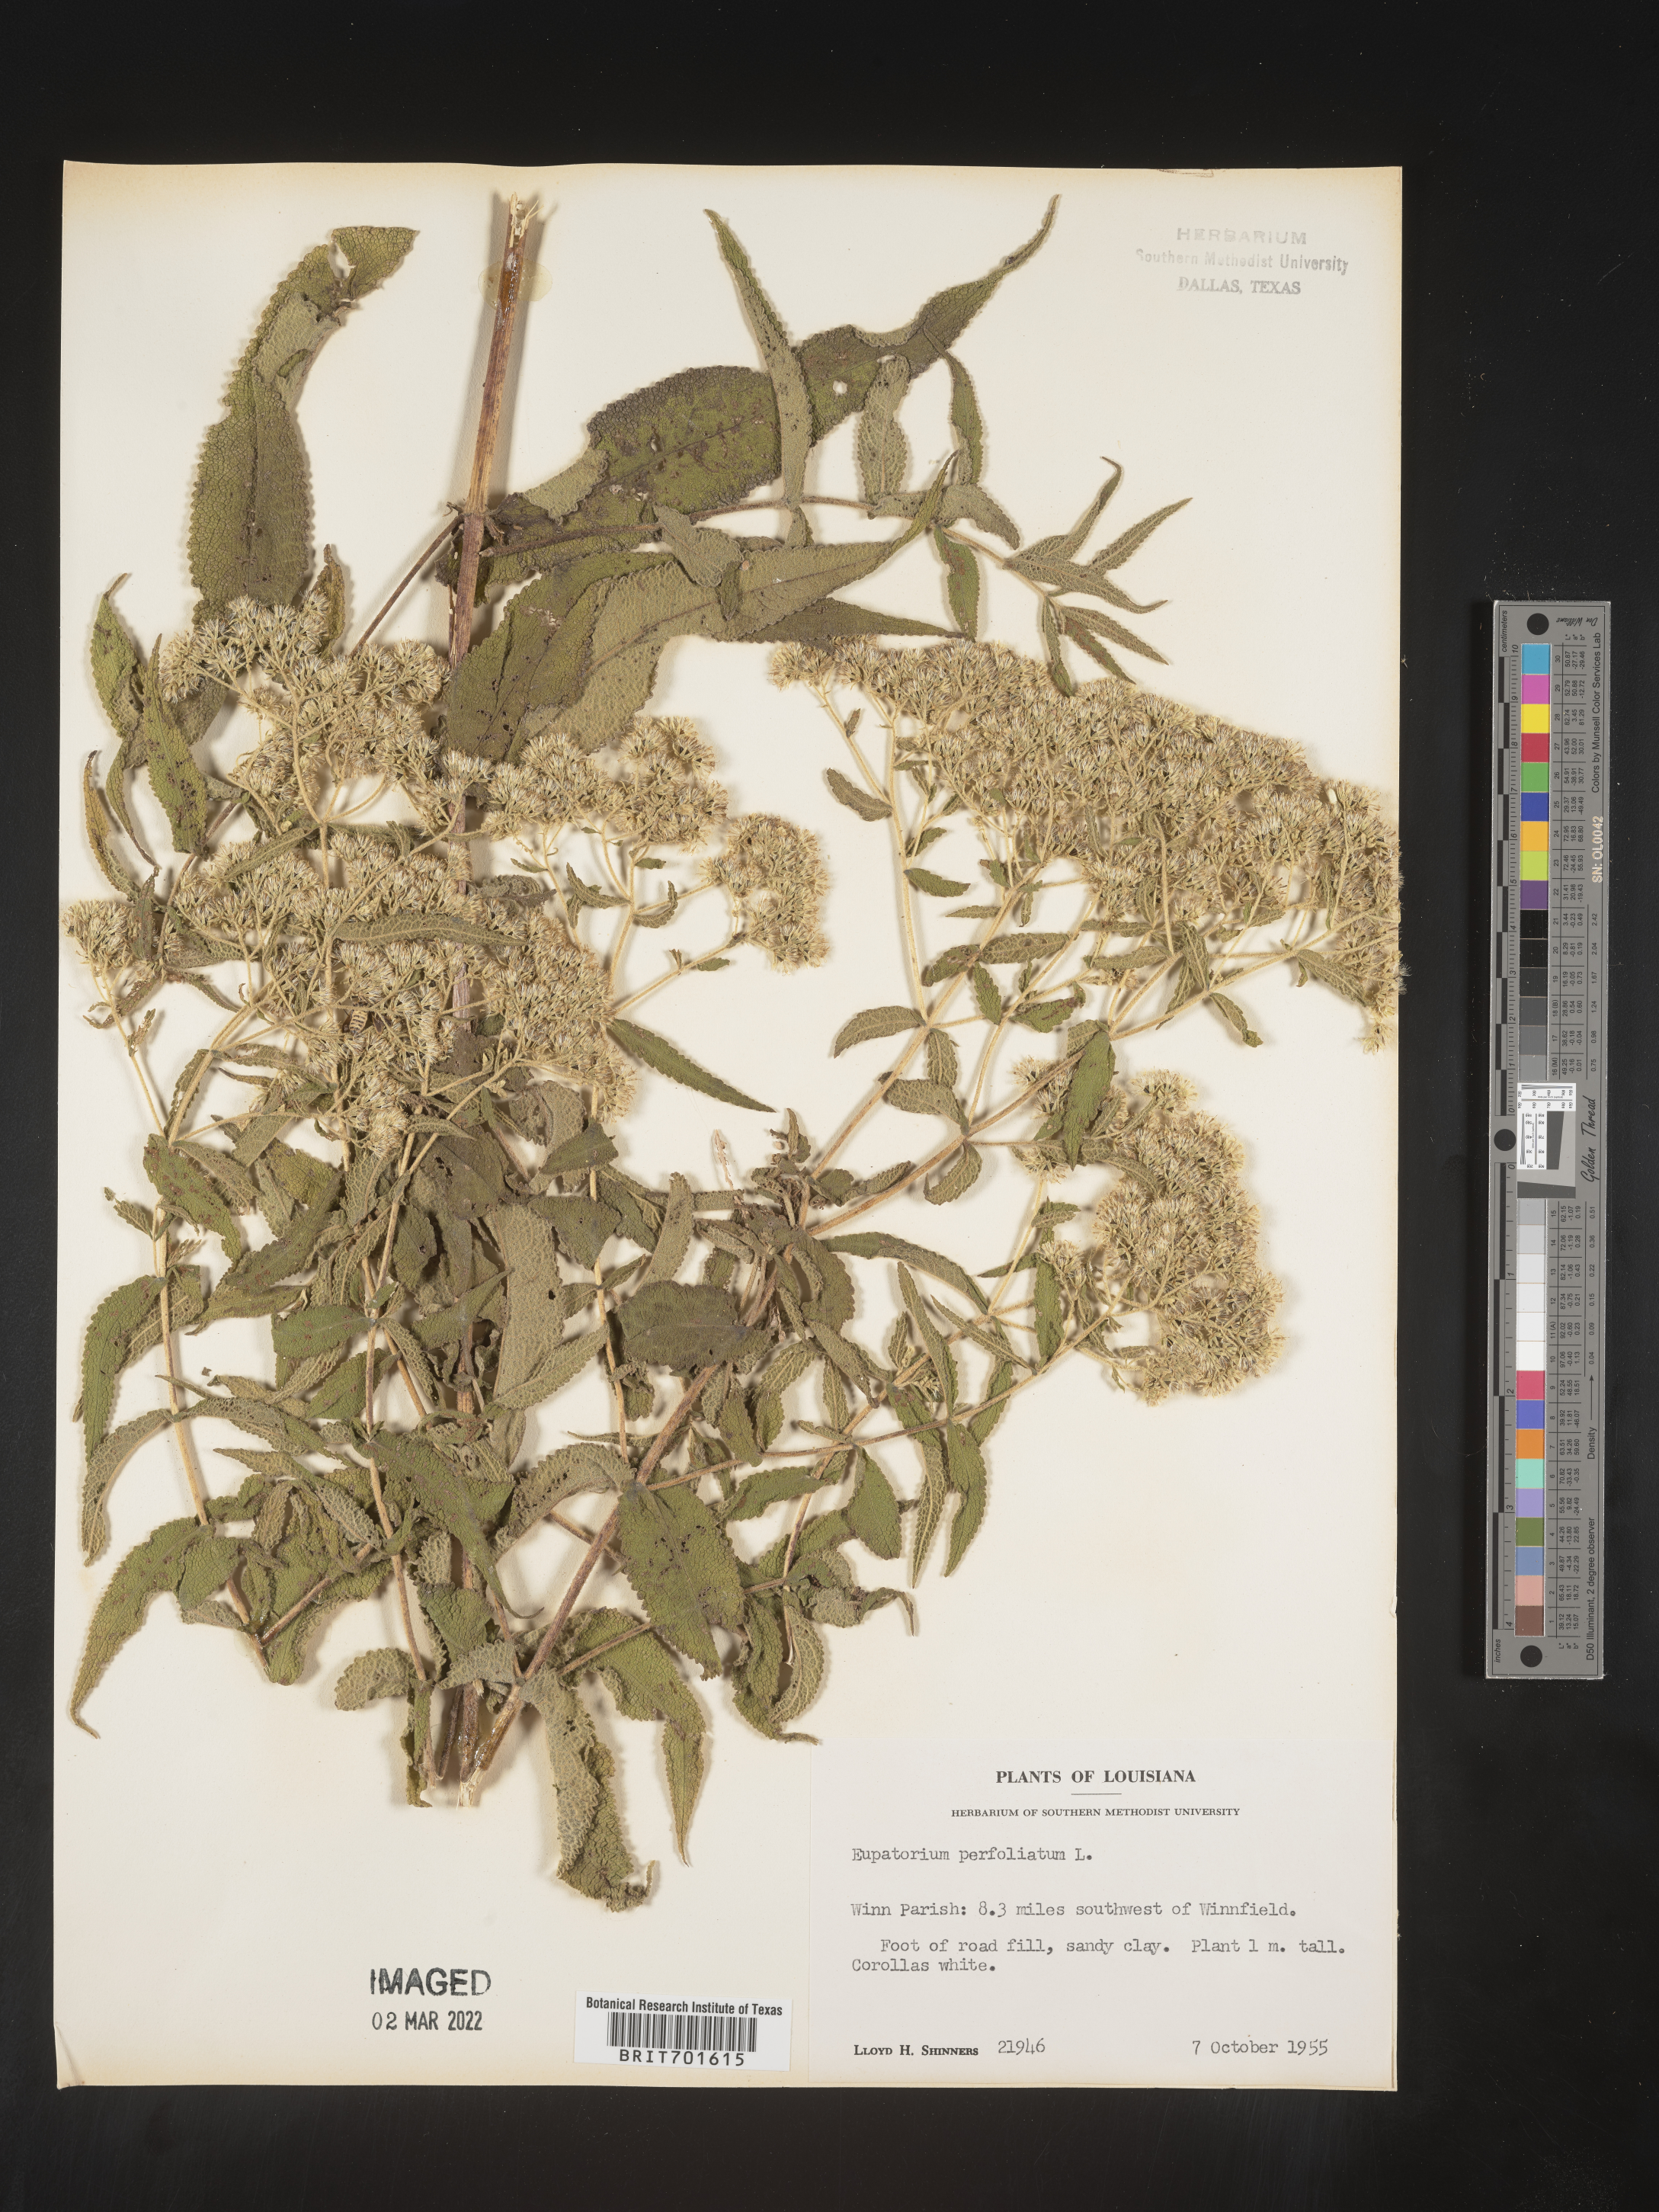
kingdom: Plantae
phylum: Tracheophyta
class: Magnoliopsida
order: Asterales
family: Asteraceae
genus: Eupatorium
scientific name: Eupatorium perfoliatum
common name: Boneset
